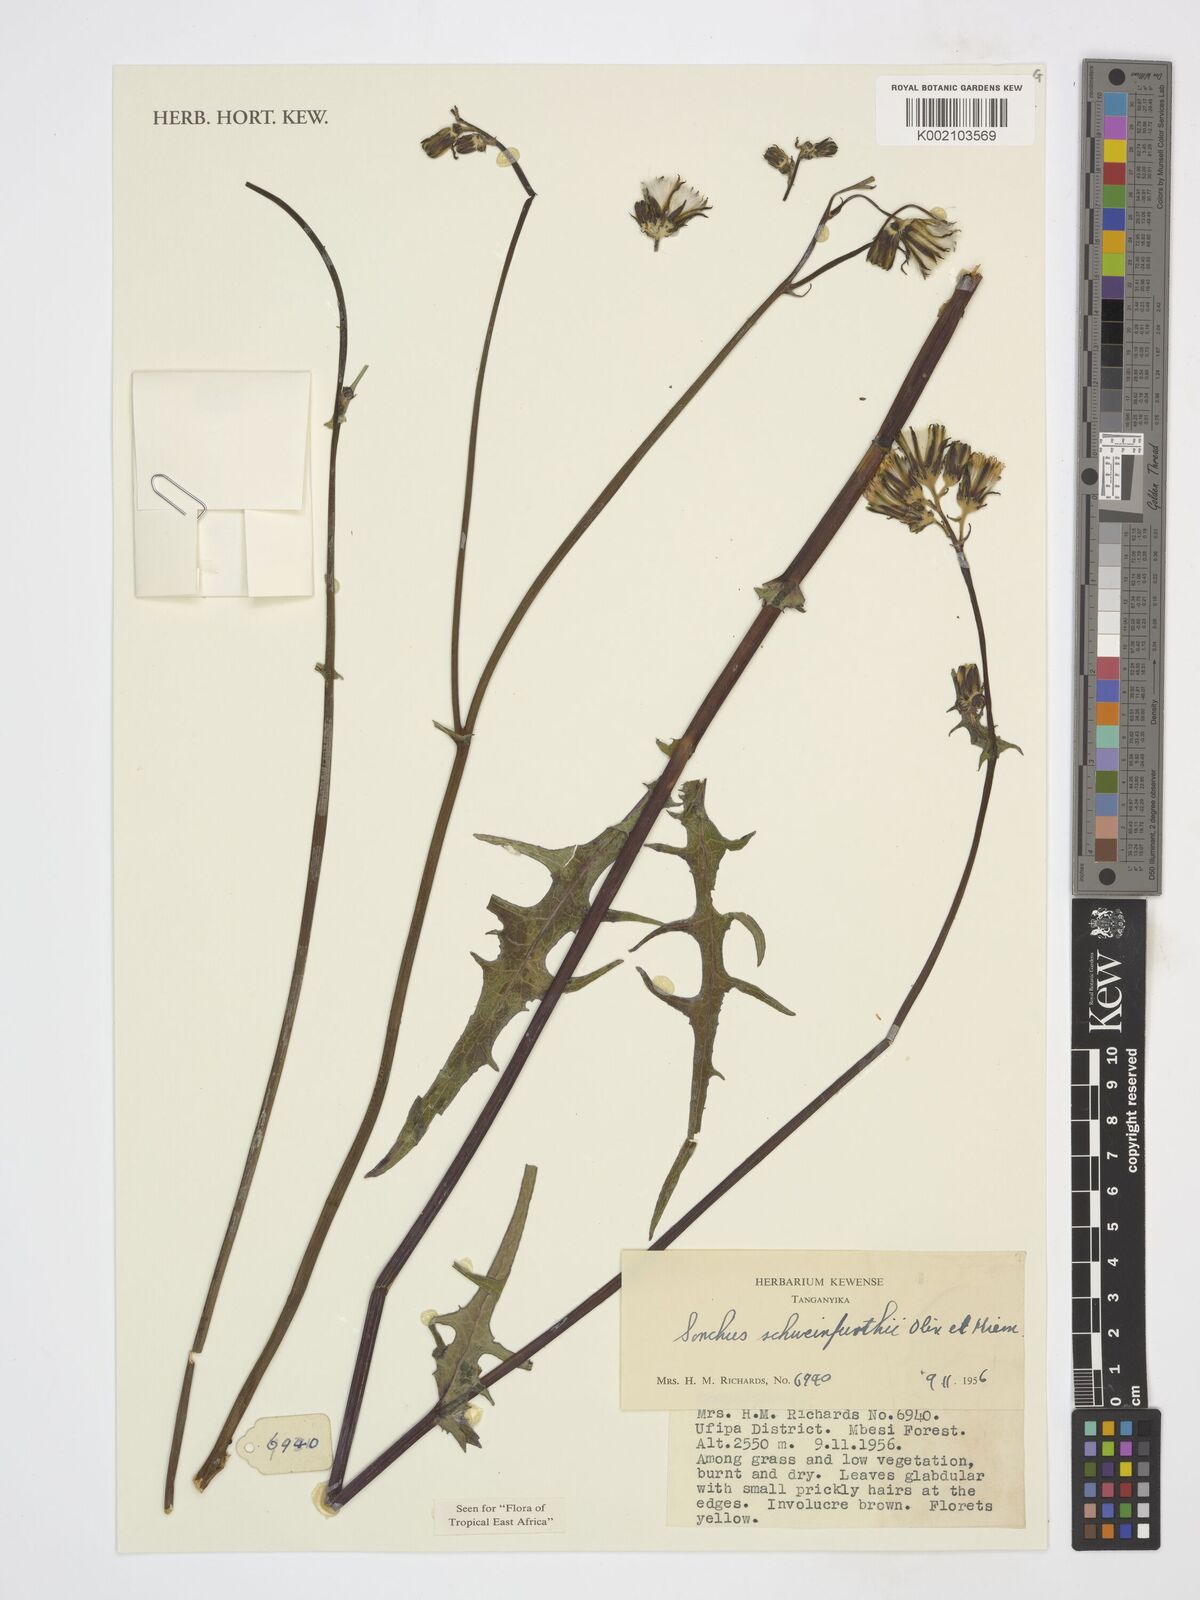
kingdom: Plantae
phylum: Tracheophyta
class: Magnoliopsida
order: Asterales
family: Asteraceae
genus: Sonchus
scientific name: Sonchus schweinfurthii
